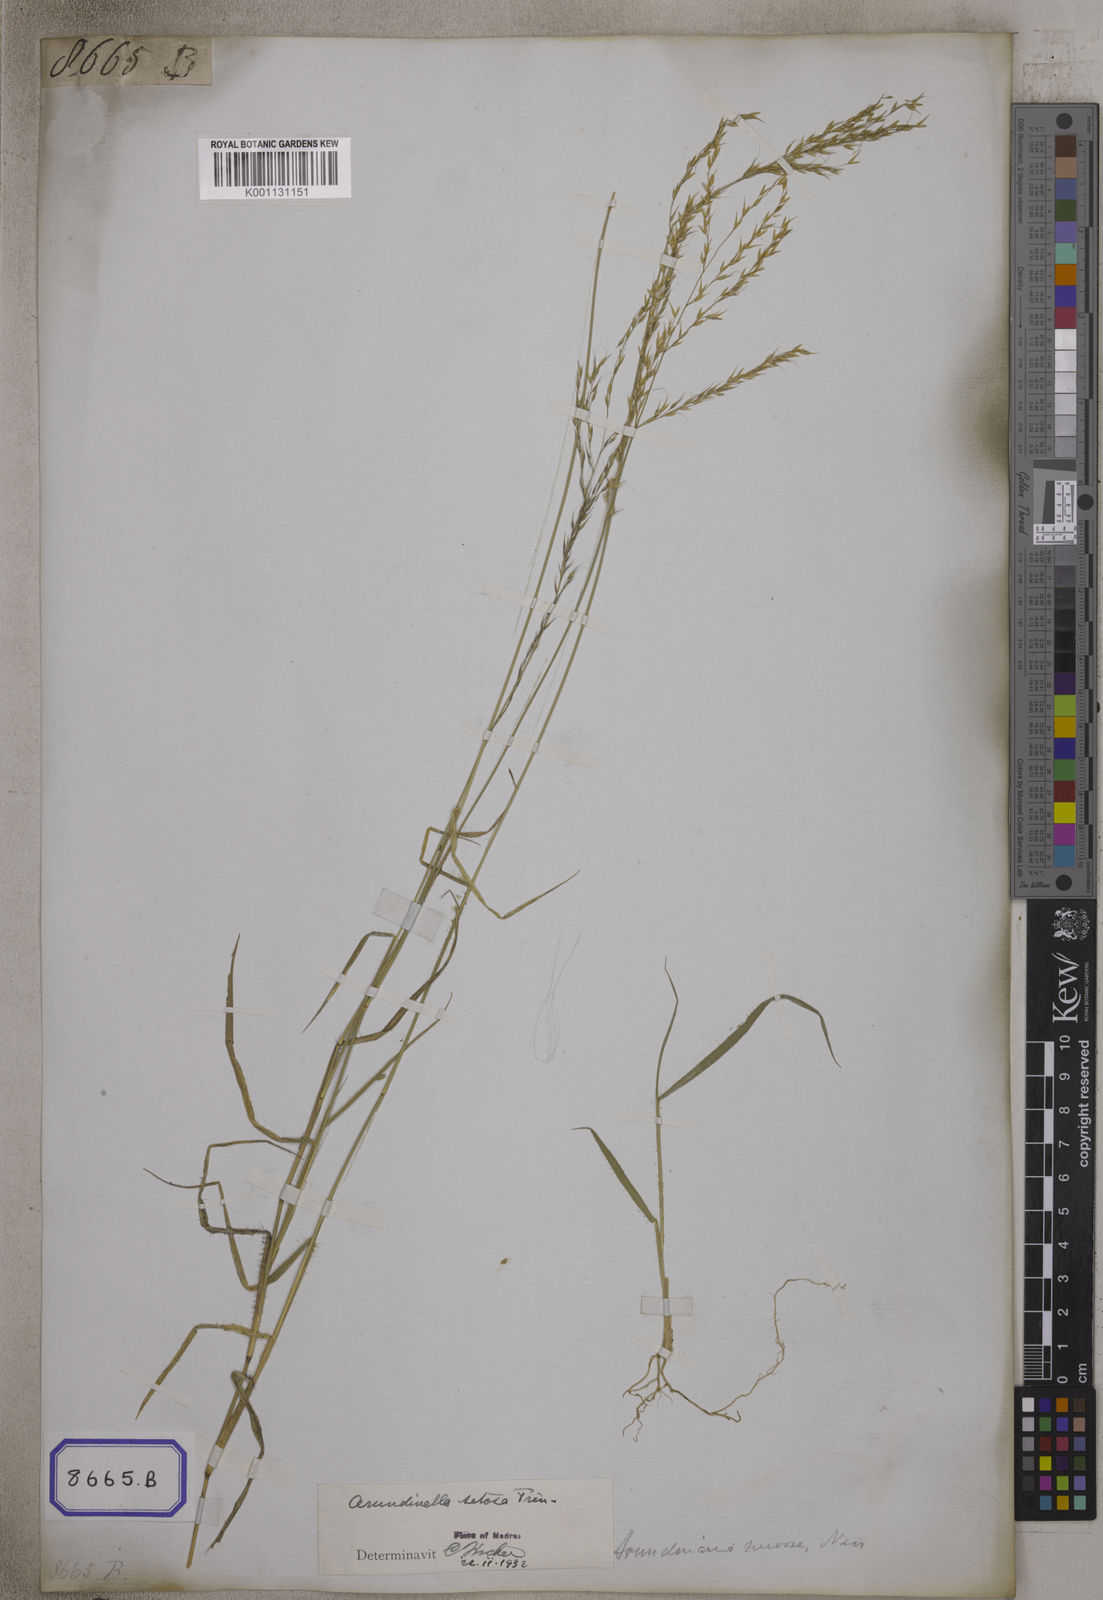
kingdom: Plantae
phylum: Tracheophyta
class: Liliopsida
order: Poales
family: Poaceae
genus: Arundinella
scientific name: Arundinella
